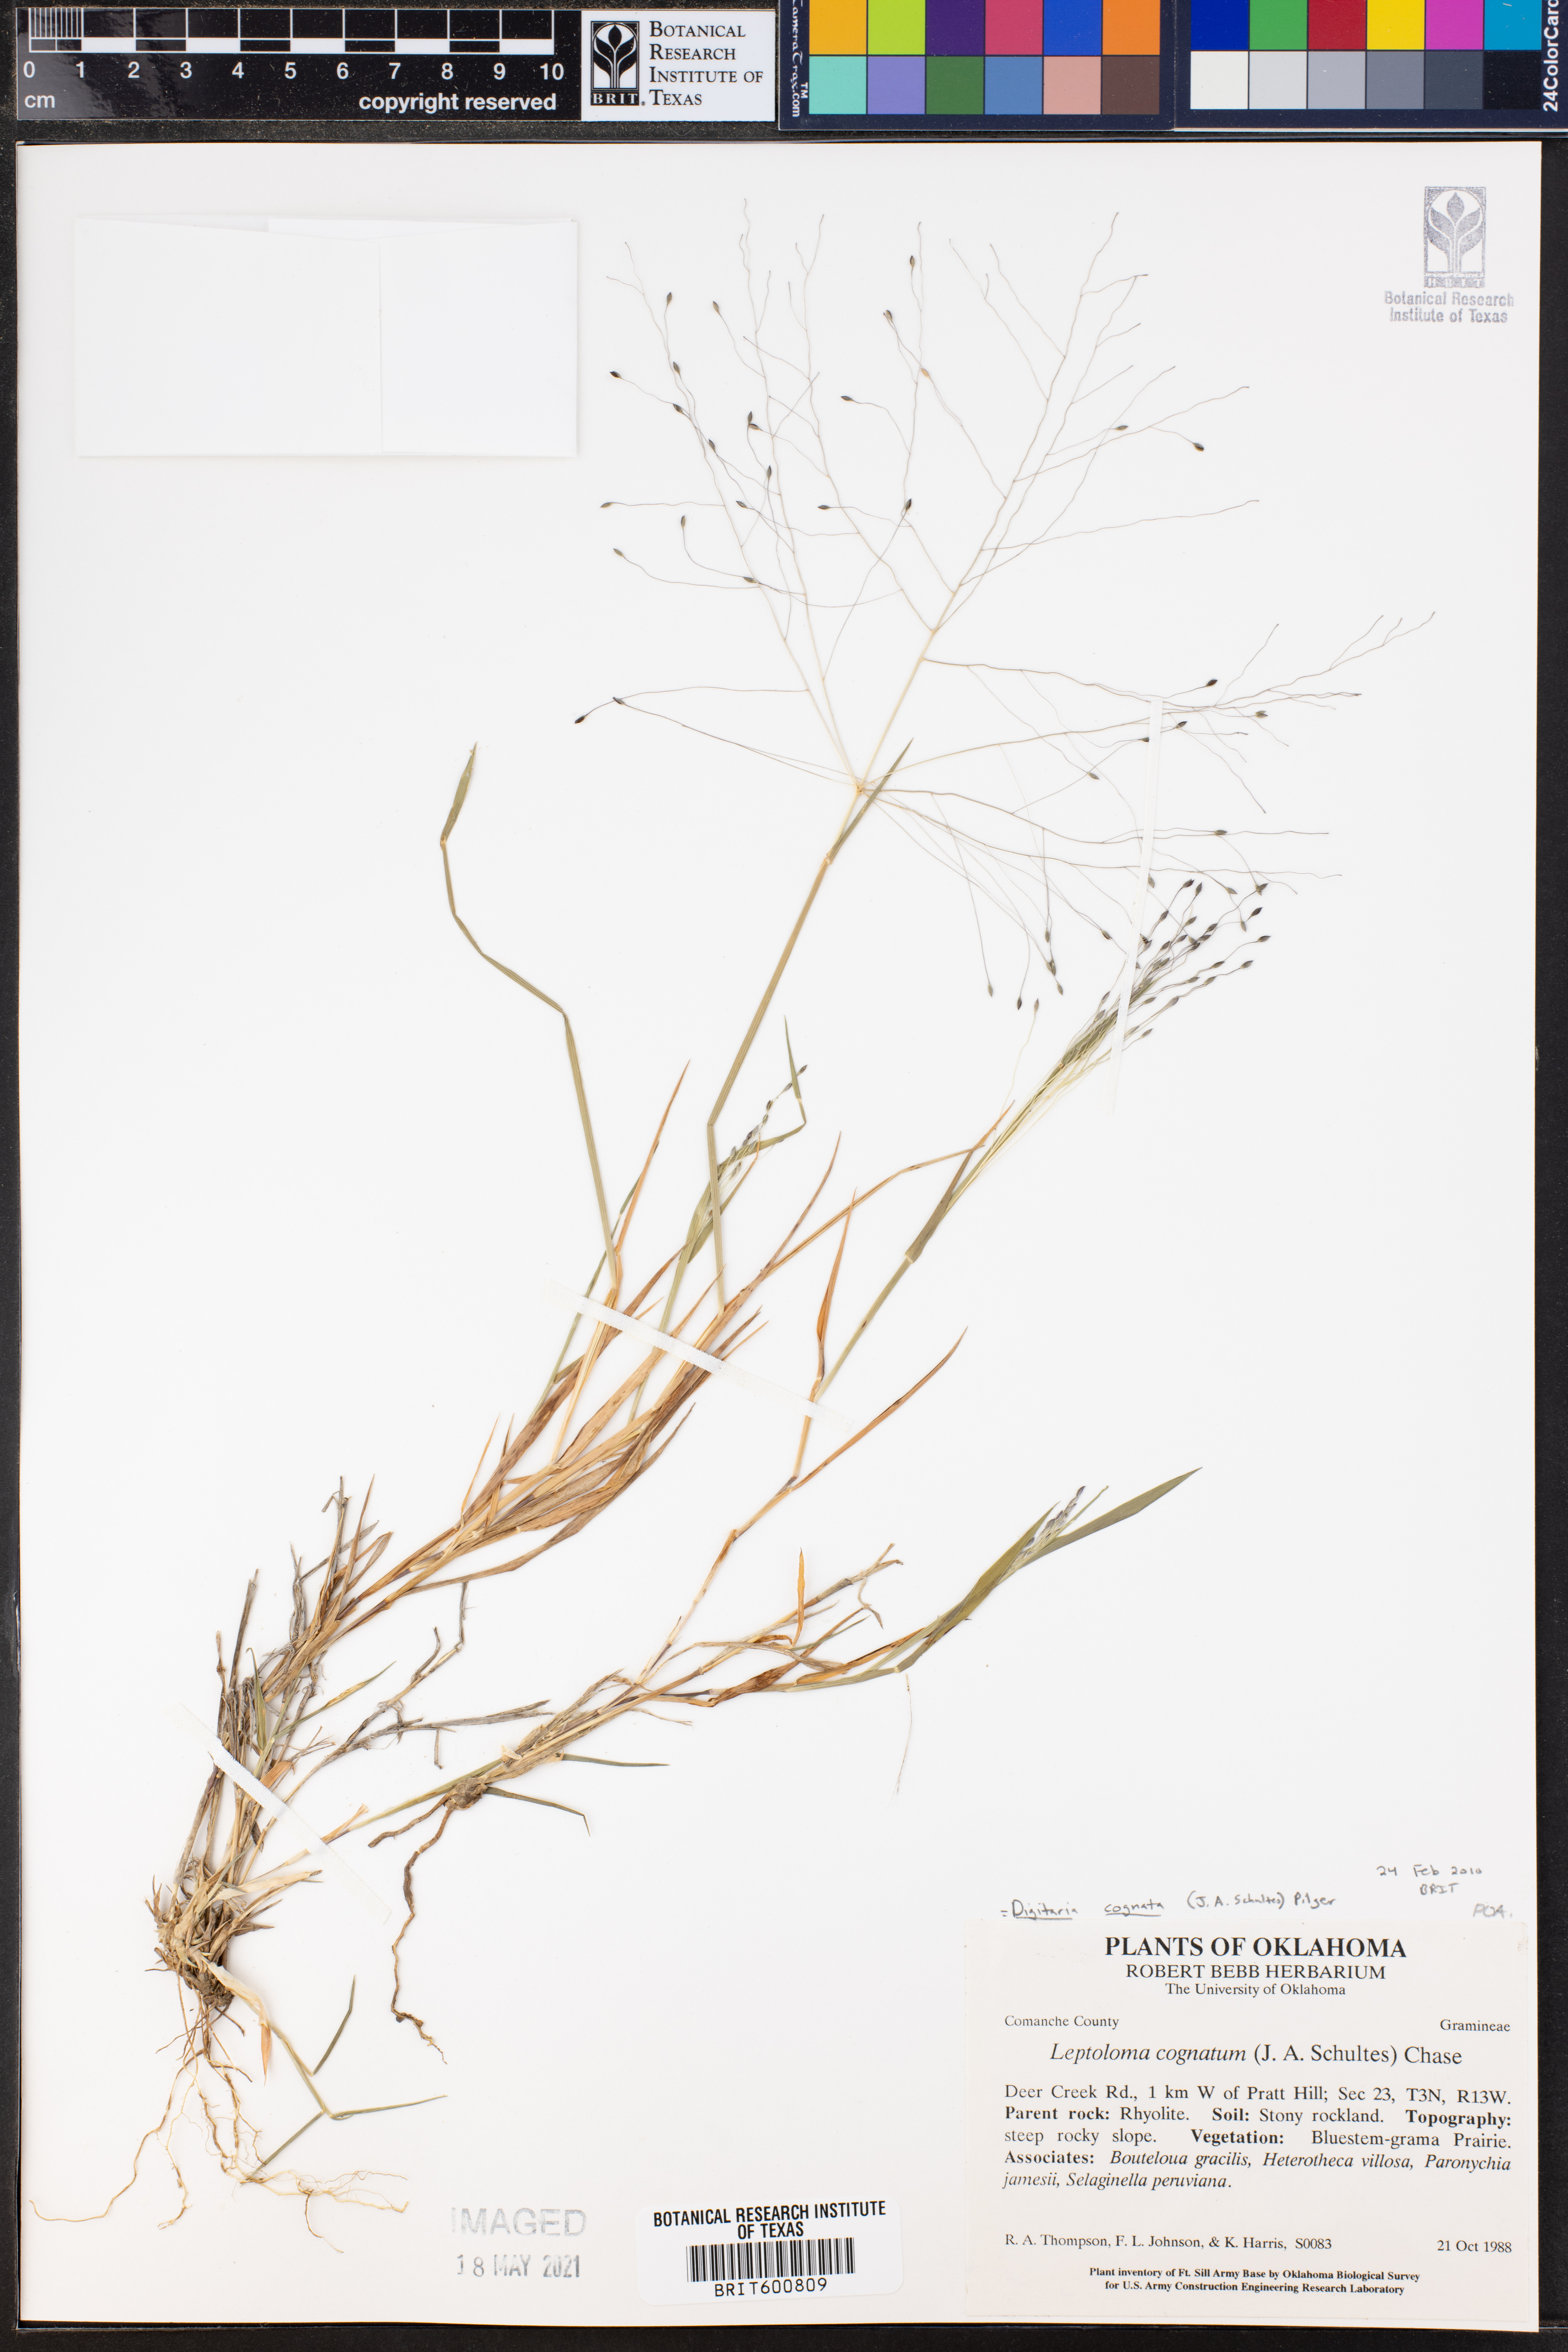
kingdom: Plantae
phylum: Tracheophyta
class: Liliopsida
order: Poales
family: Poaceae
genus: Digitaria
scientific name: Digitaria cognata
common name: Fall witchgrass
